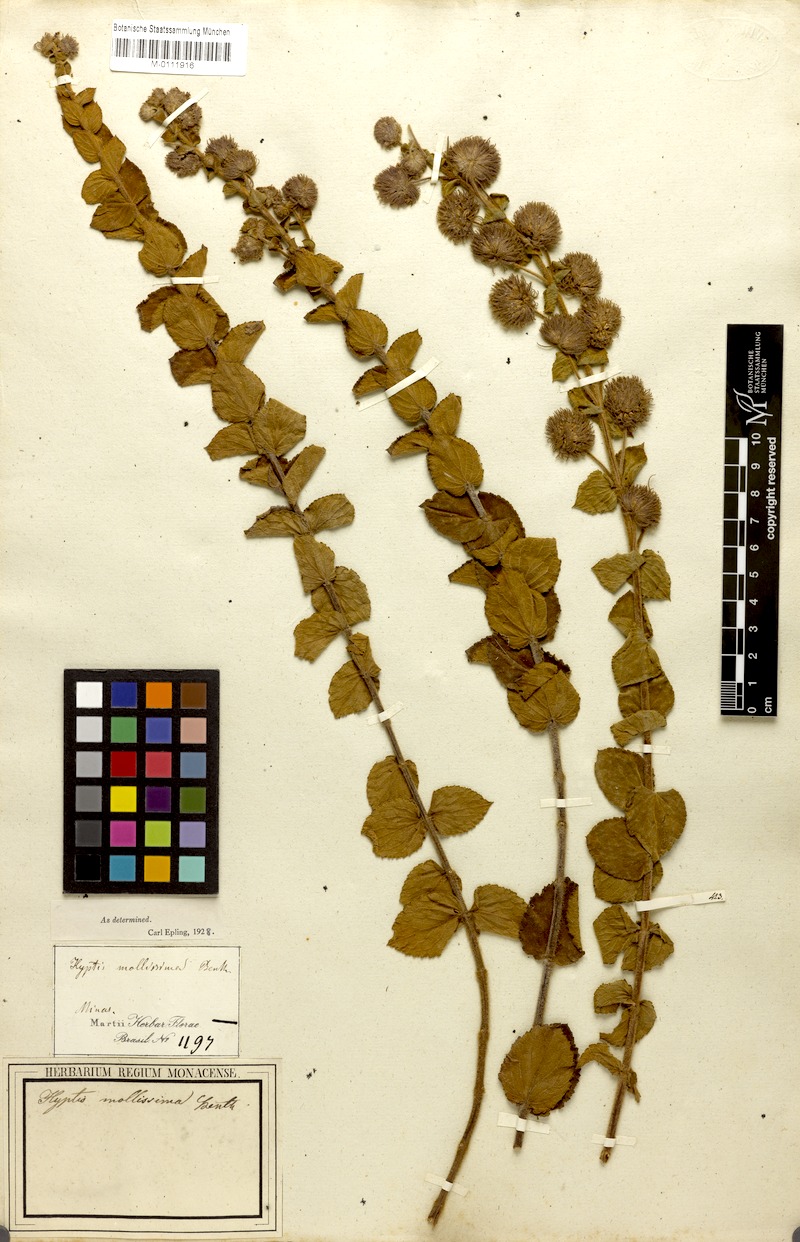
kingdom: Plantae
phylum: Tracheophyta
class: Magnoliopsida
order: Lamiales
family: Lamiaceae
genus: Medusantha
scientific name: Medusantha mollissima
